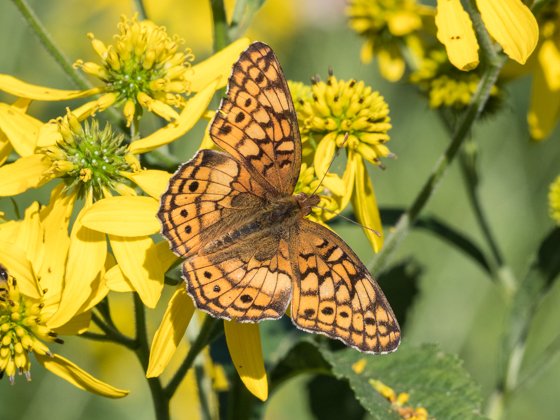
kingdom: Animalia
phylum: Arthropoda
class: Insecta
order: Lepidoptera
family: Nymphalidae
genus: Euptoieta
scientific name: Euptoieta claudia
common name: Variegated Fritillary
